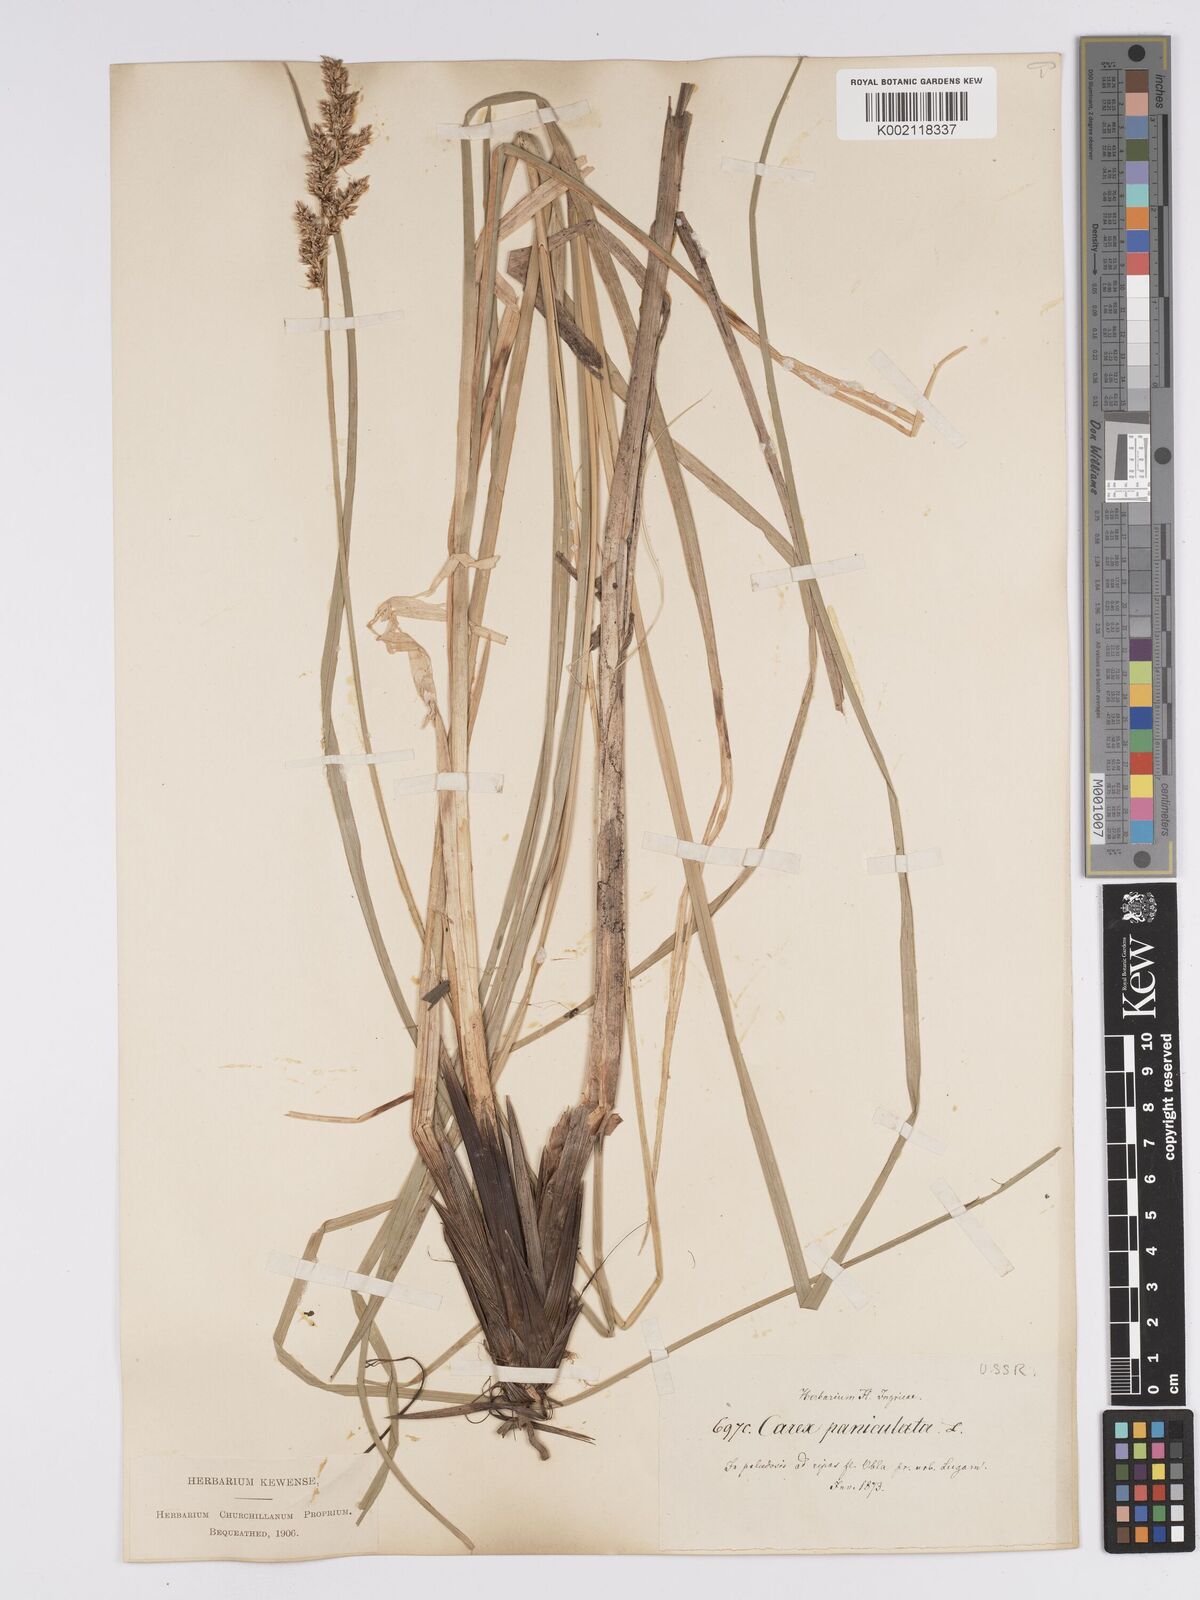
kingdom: Plantae
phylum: Tracheophyta
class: Liliopsida
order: Poales
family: Cyperaceae
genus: Carex
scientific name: Carex paniculata
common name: Greater tussock-sedge
